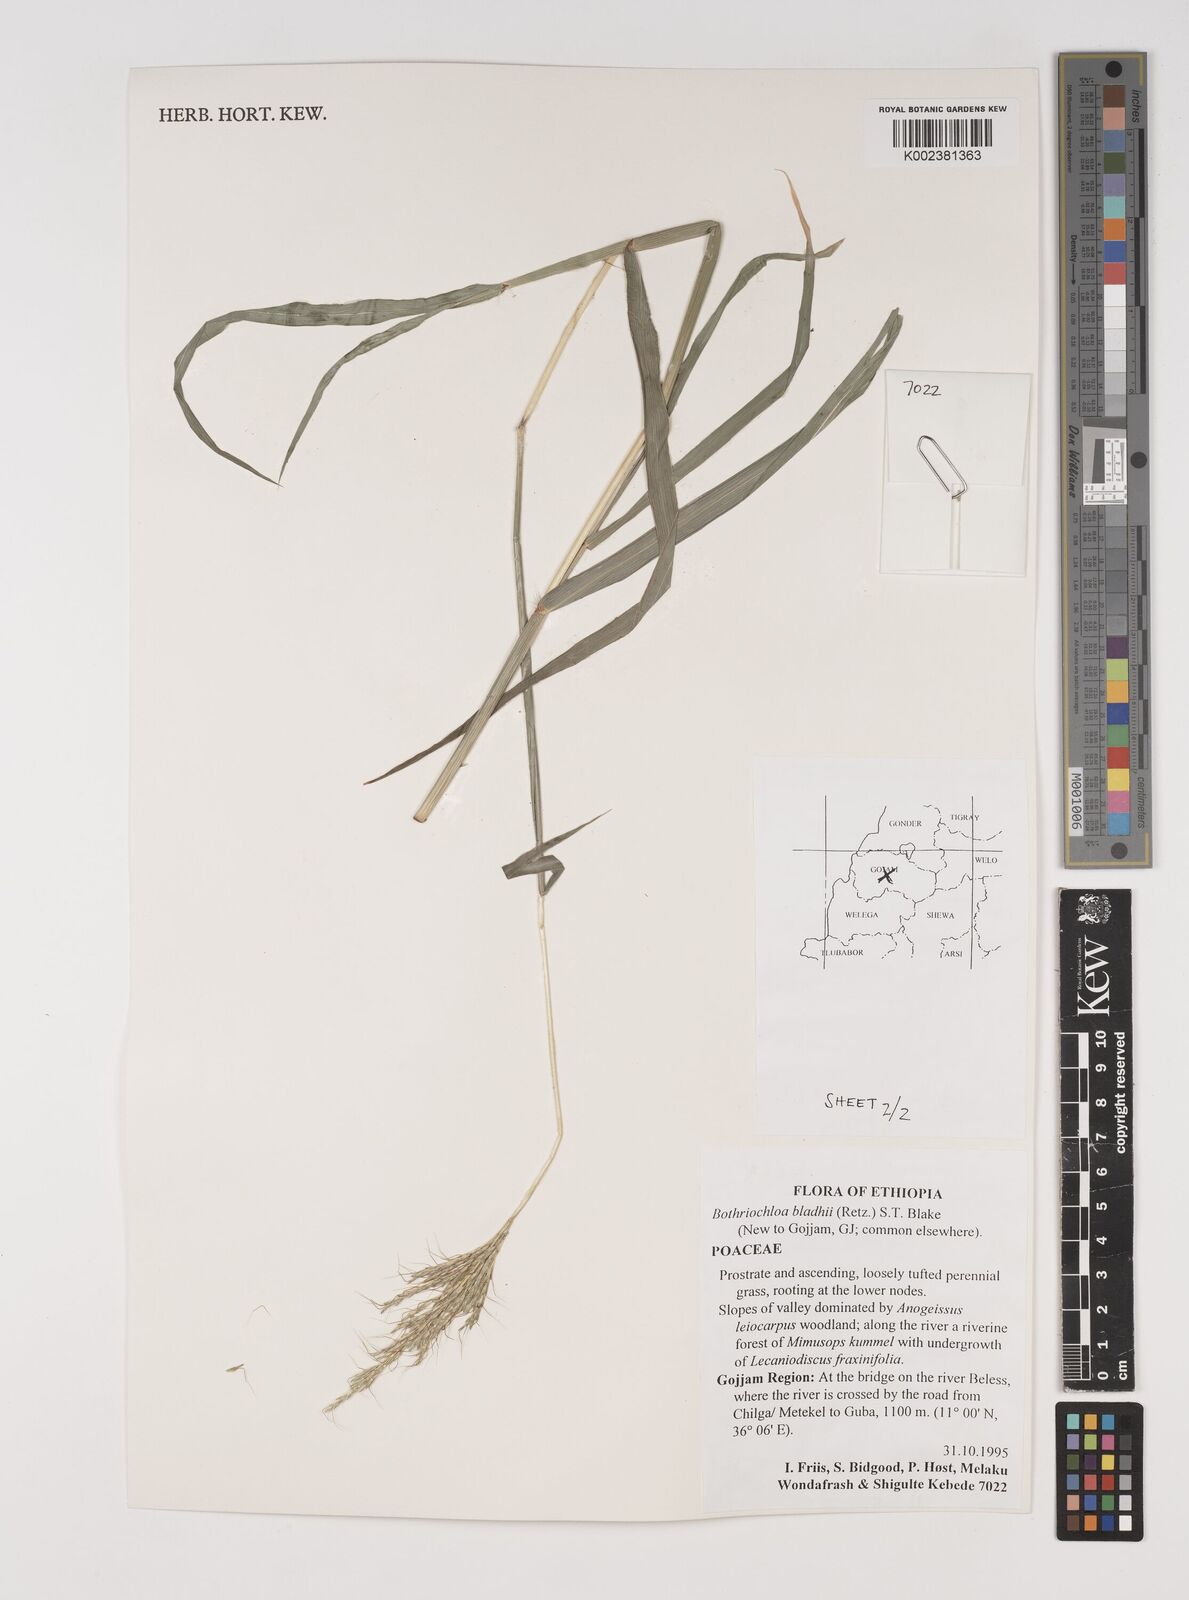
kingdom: Plantae
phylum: Tracheophyta
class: Liliopsida
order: Poales
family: Poaceae
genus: Bothriochloa
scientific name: Bothriochloa bladhii
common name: Caucasian bluestem
